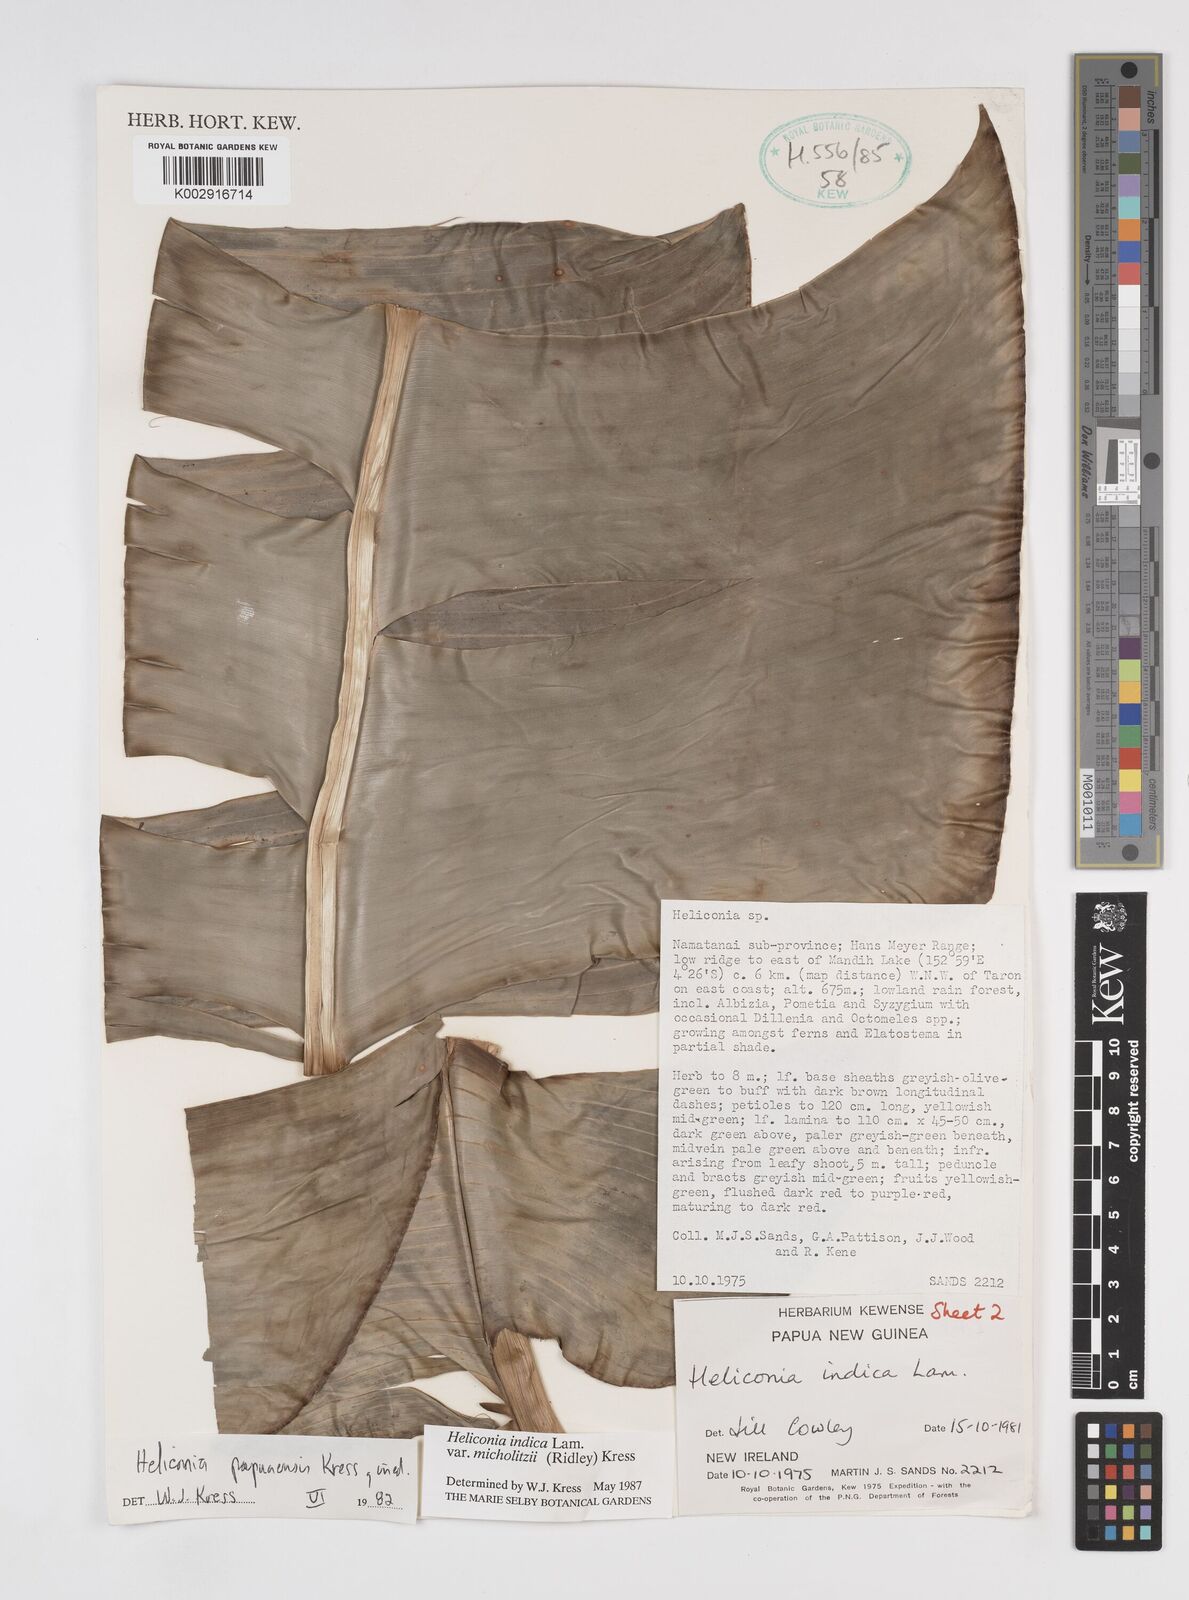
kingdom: Plantae
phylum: Tracheophyta
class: Liliopsida
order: Zingiberales
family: Heliconiaceae
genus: Heliconia
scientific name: Heliconia indica
